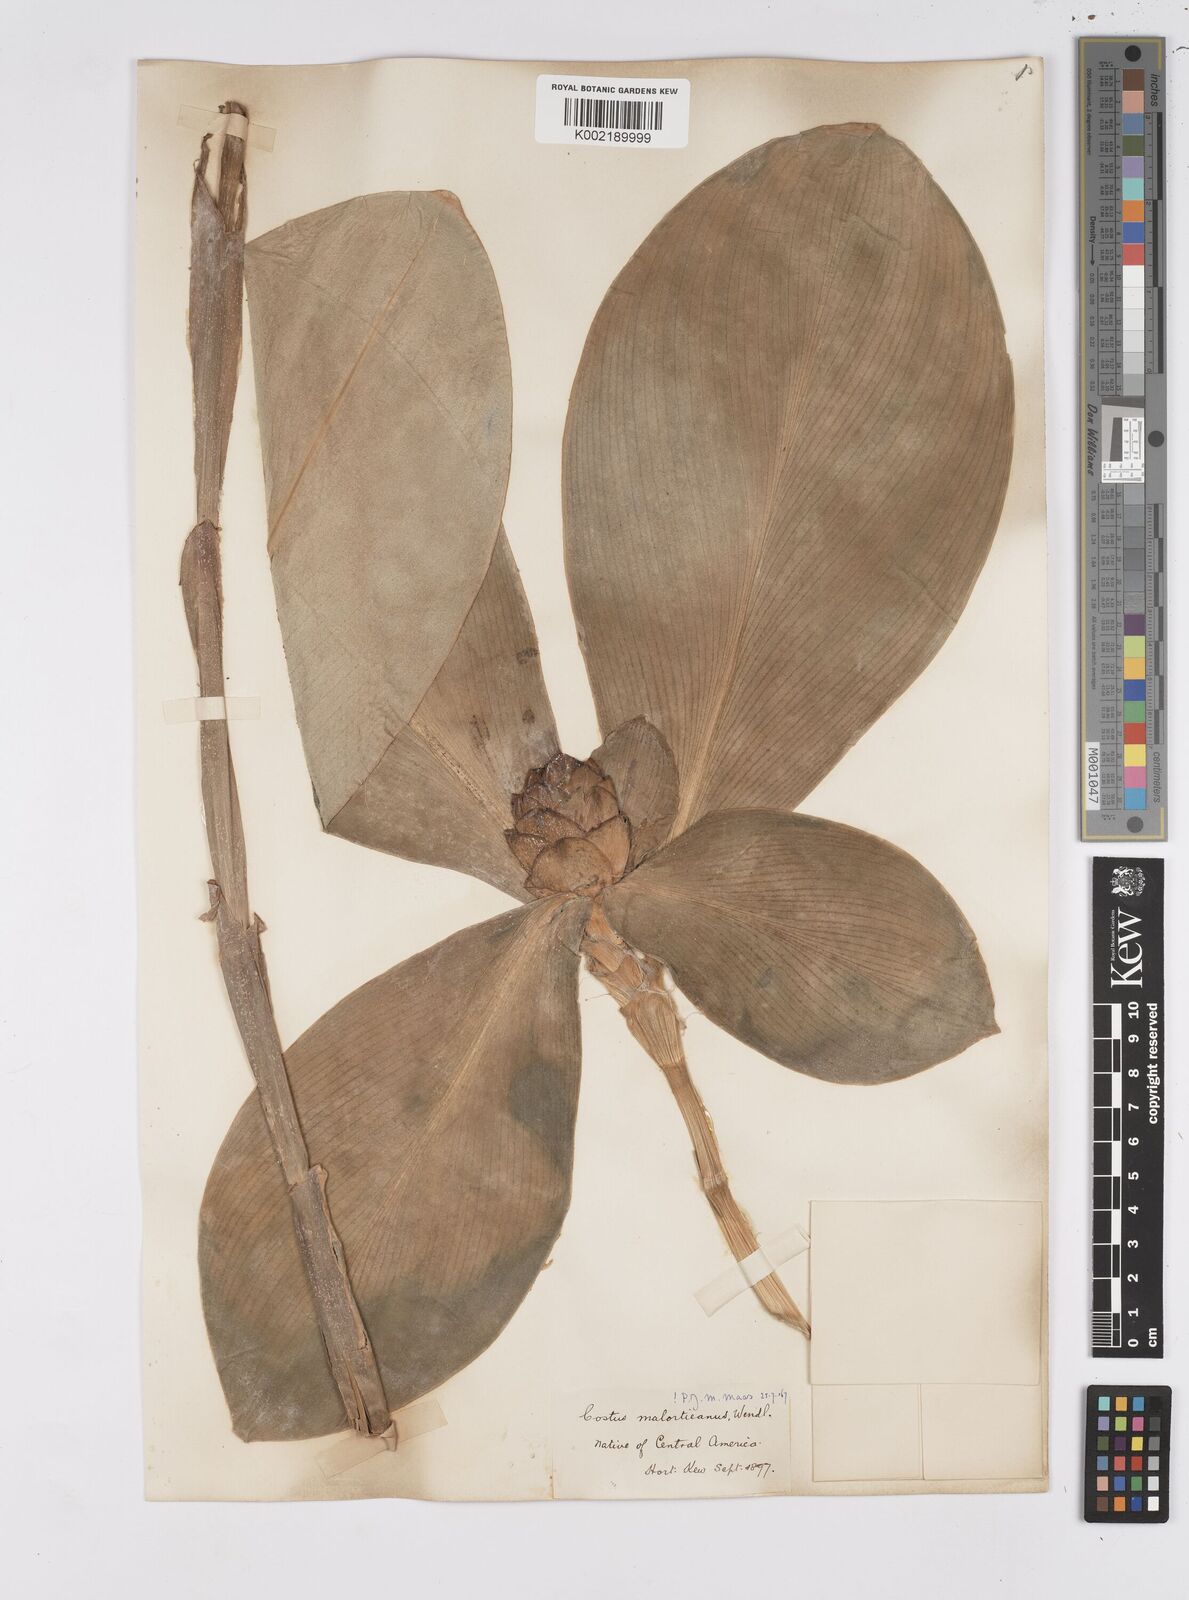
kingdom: Plantae
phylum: Tracheophyta
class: Liliopsida
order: Zingiberales
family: Costaceae
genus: Costus
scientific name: Costus elegans
